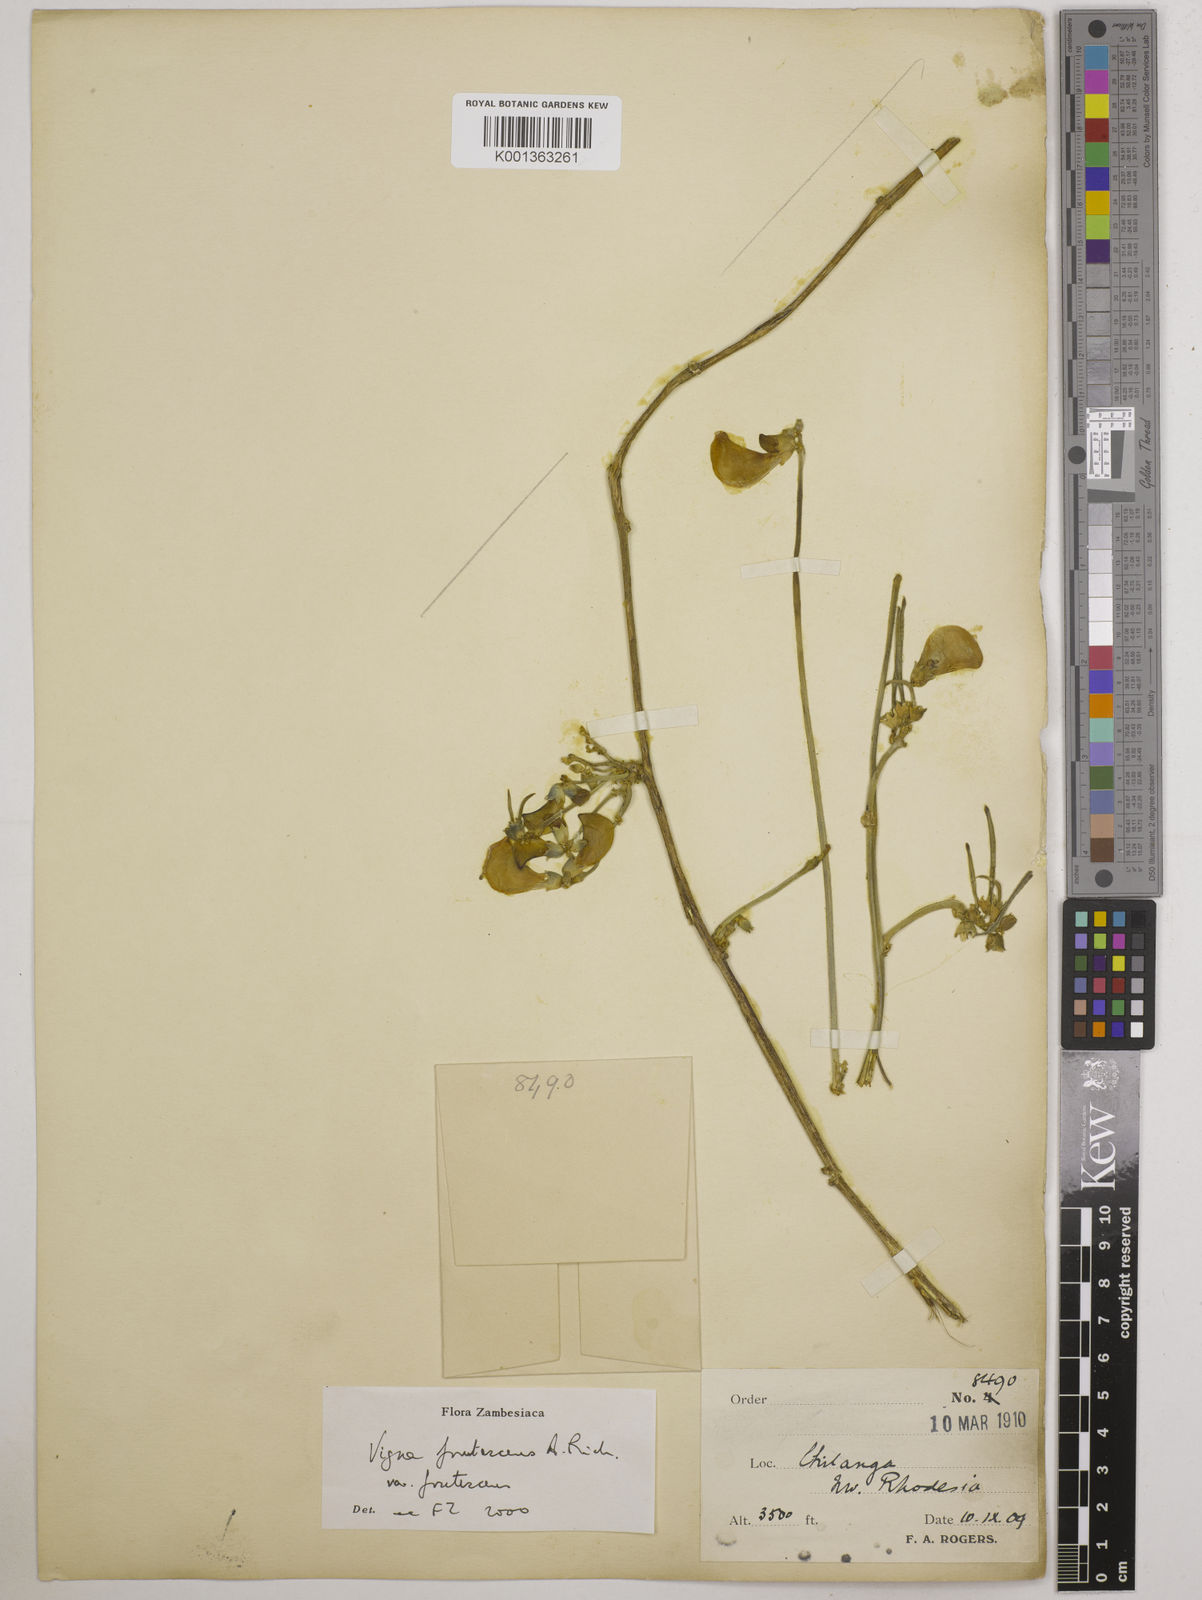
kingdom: Plantae
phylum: Tracheophyta
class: Magnoliopsida
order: Fabales
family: Fabaceae
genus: Vigna
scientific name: Vigna
